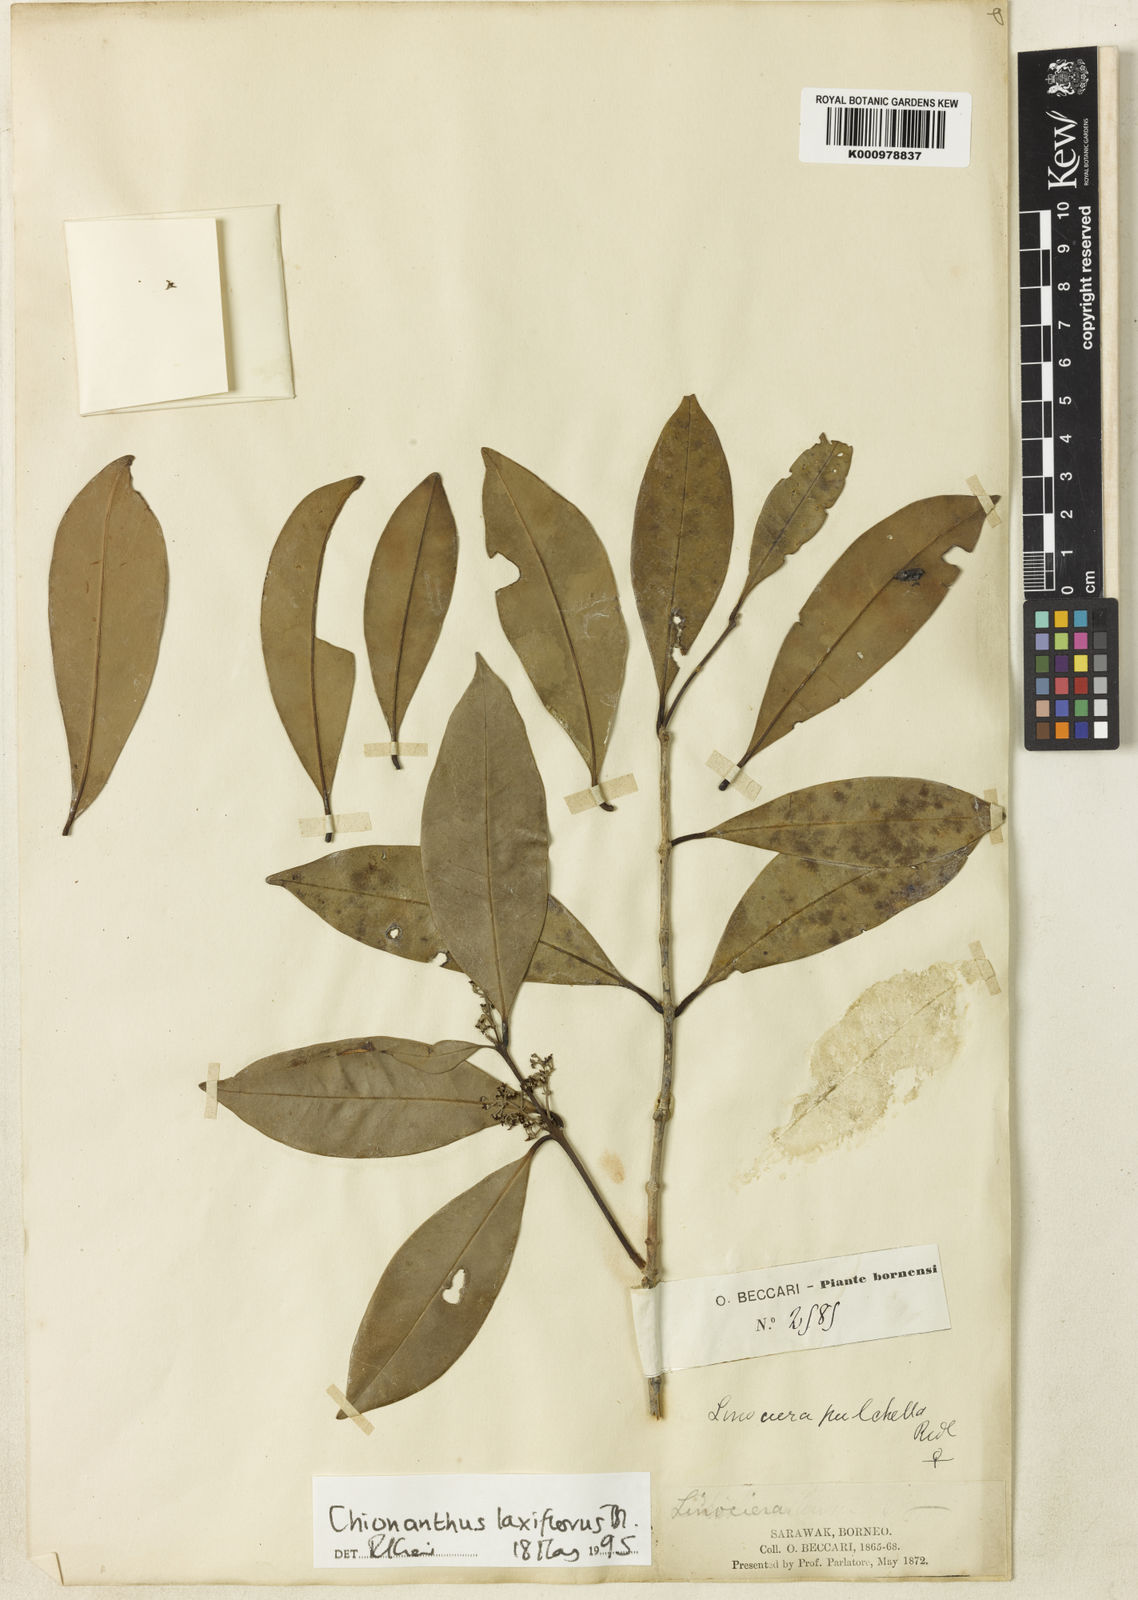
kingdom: Plantae
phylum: Tracheophyta
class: Magnoliopsida
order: Lamiales
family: Oleaceae
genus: Chionanthus
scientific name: Chionanthus polygamus
